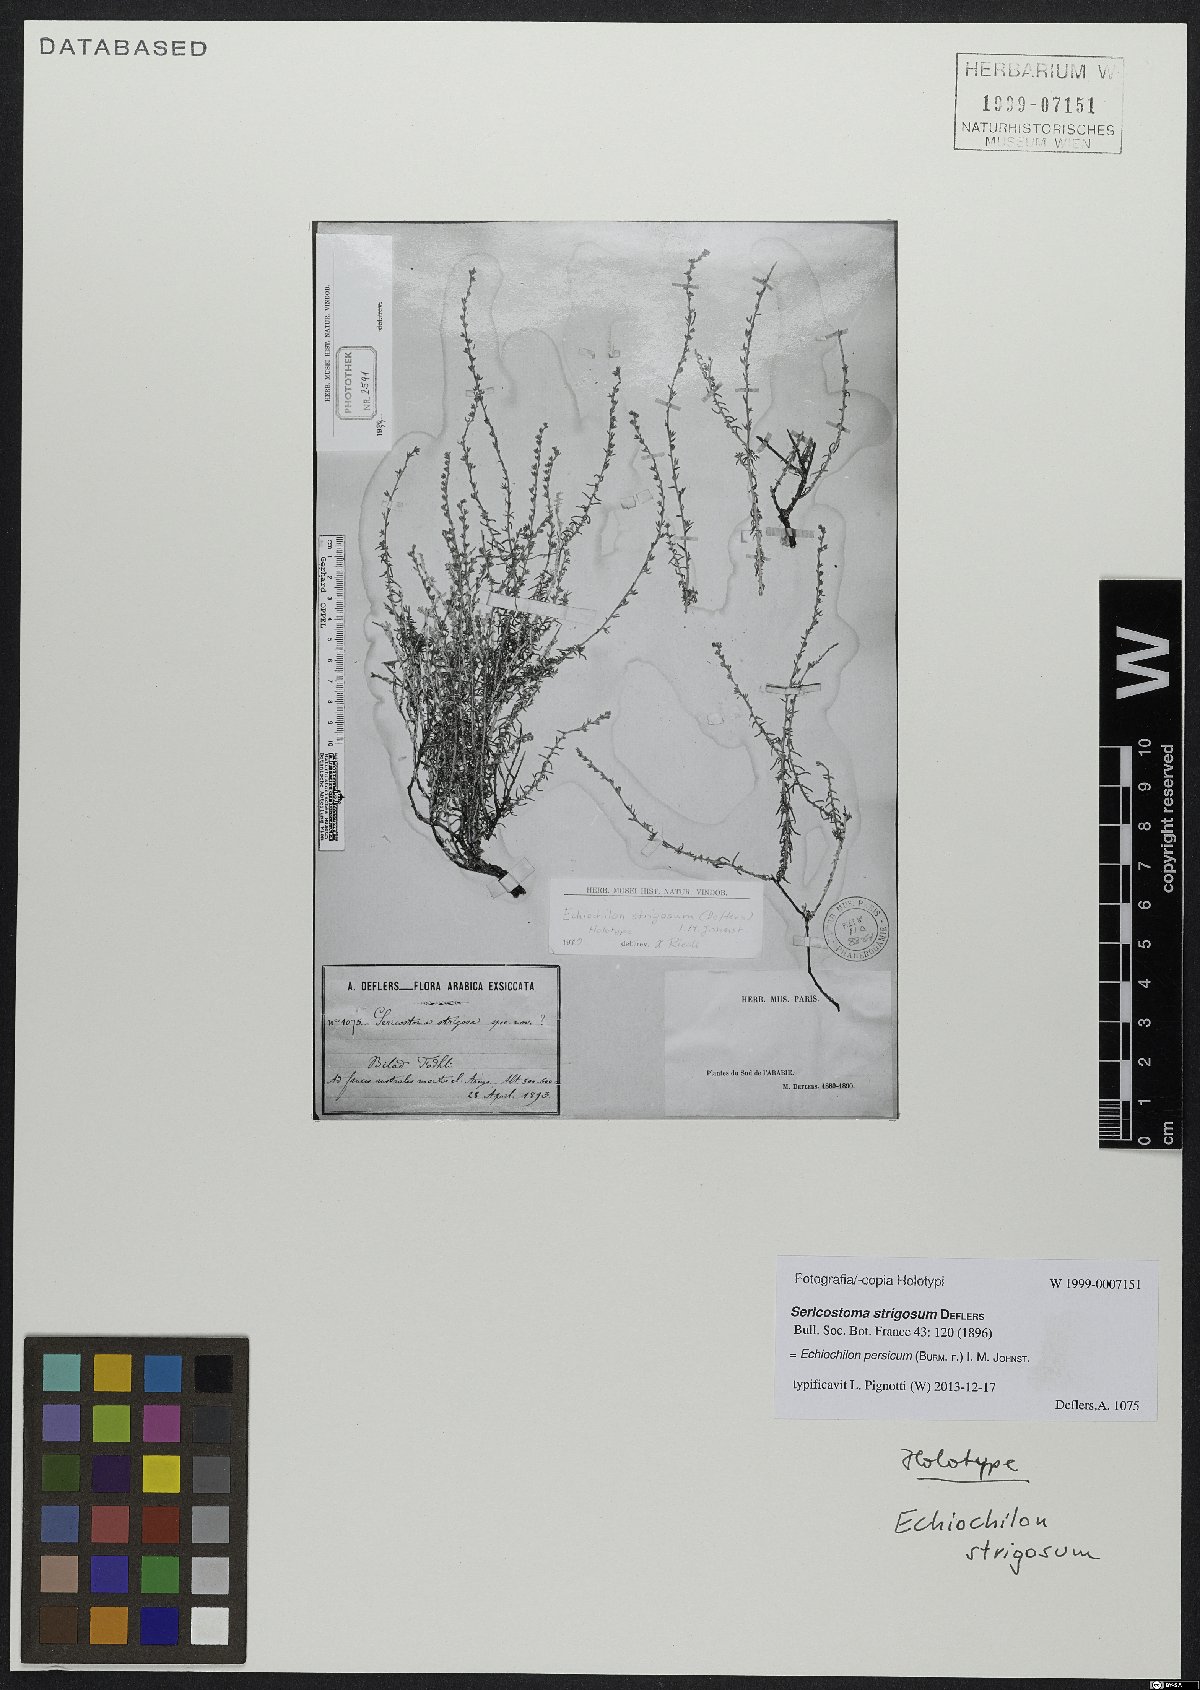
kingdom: Plantae
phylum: Tracheophyta
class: Magnoliopsida
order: Boraginales
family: Boraginaceae
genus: Echiochilon
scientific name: Echiochilon persicum
